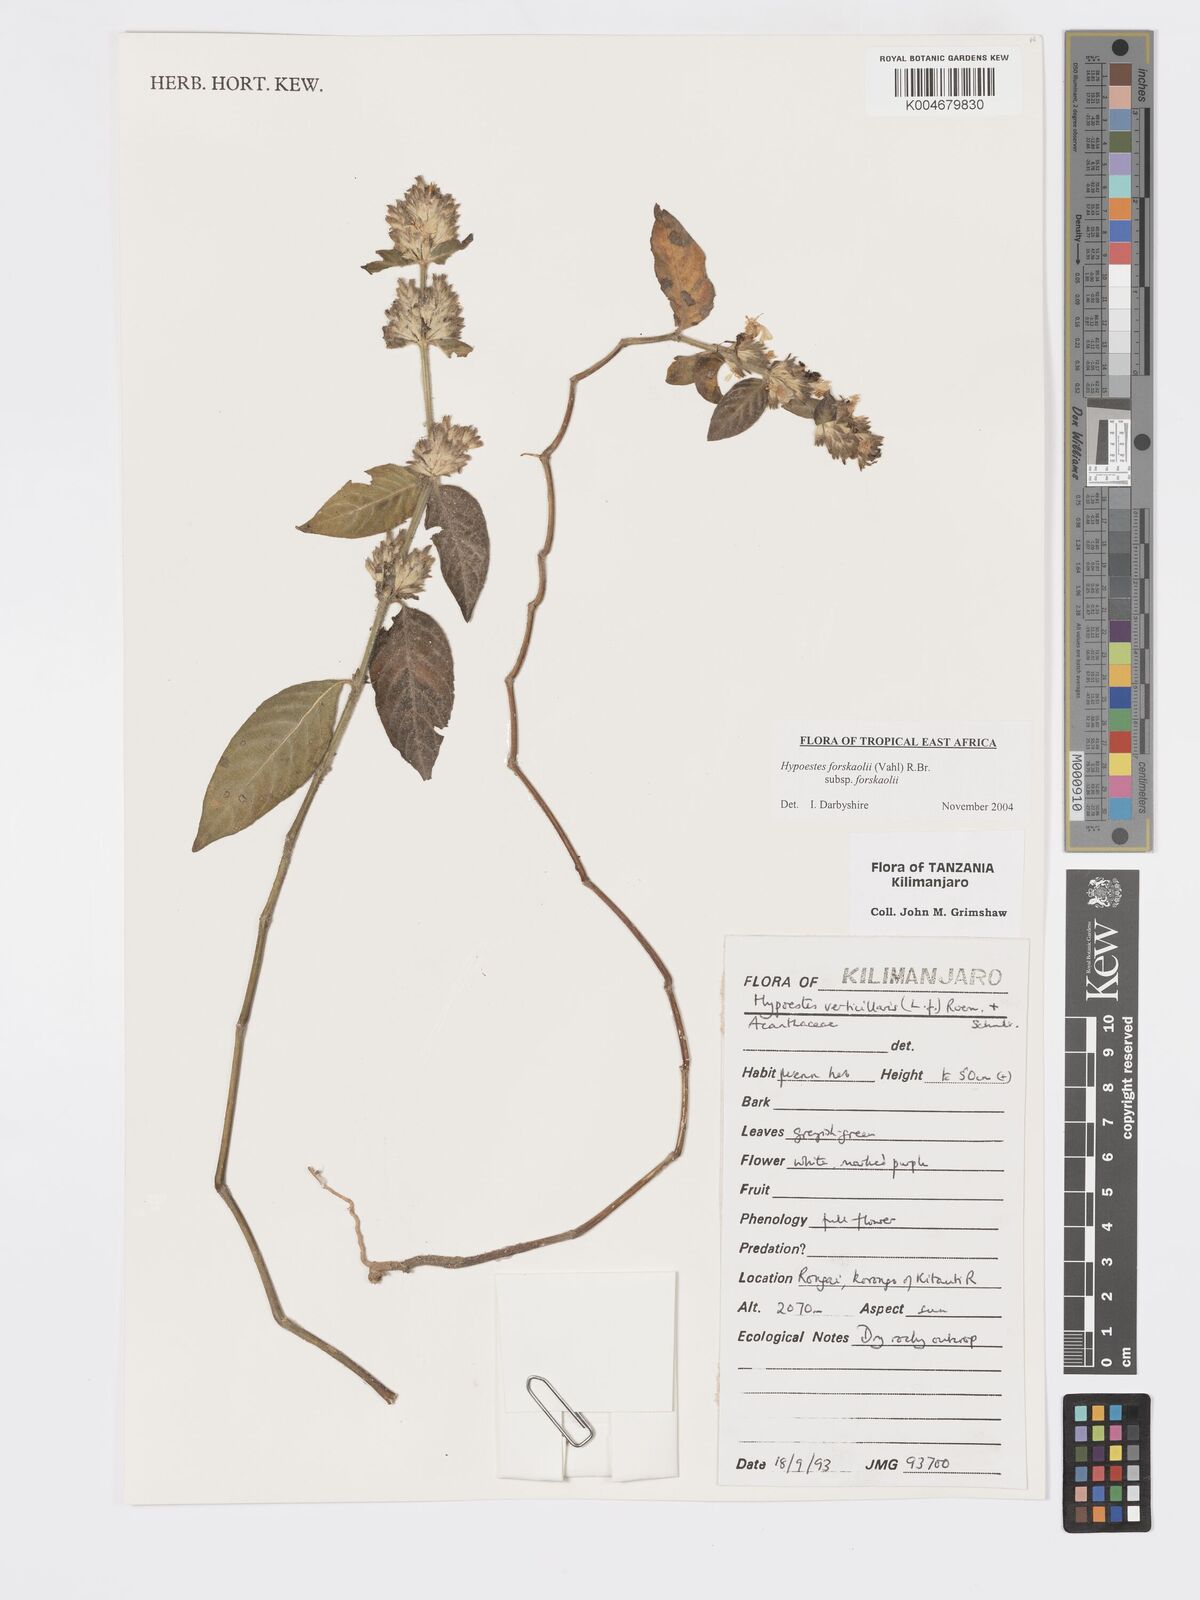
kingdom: Plantae
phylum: Tracheophyta
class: Magnoliopsida
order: Lamiales
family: Acanthaceae
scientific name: Acanthaceae
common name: Acanthaceae
